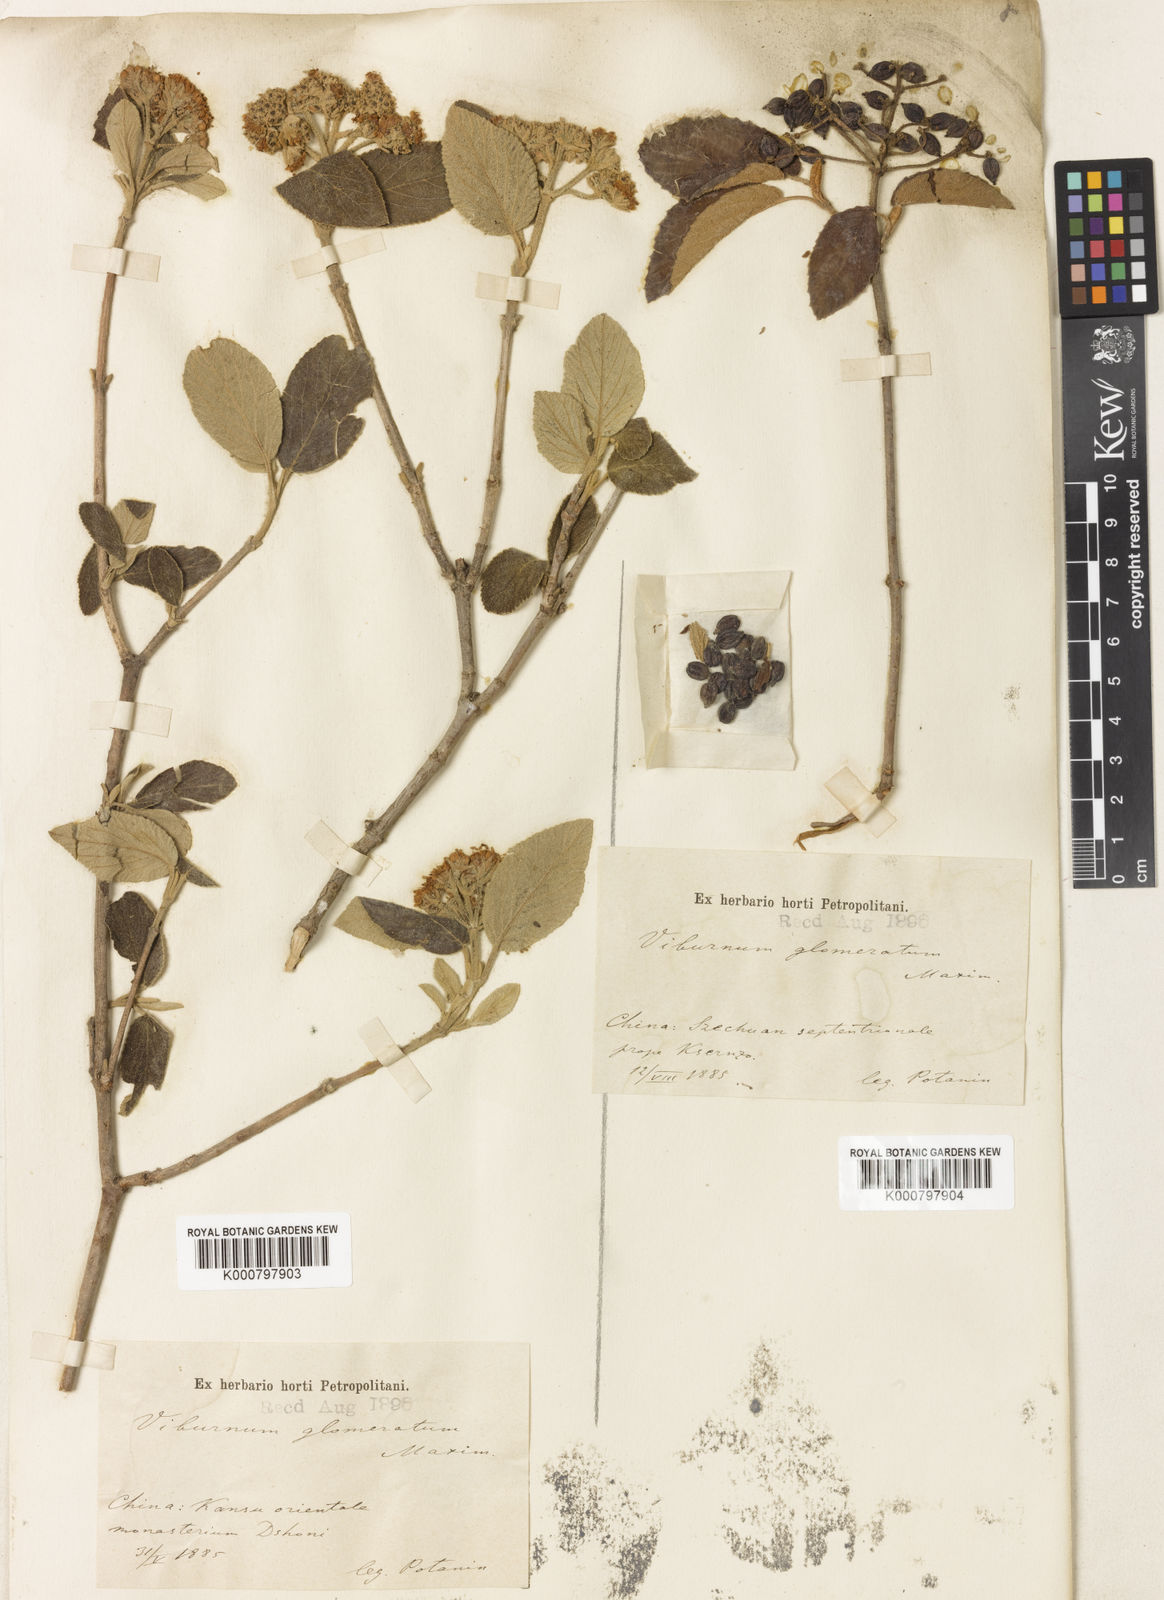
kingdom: Plantae
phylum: Tracheophyta
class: Magnoliopsida
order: Dipsacales
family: Viburnaceae
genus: Viburnum
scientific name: Viburnum glomeratum
